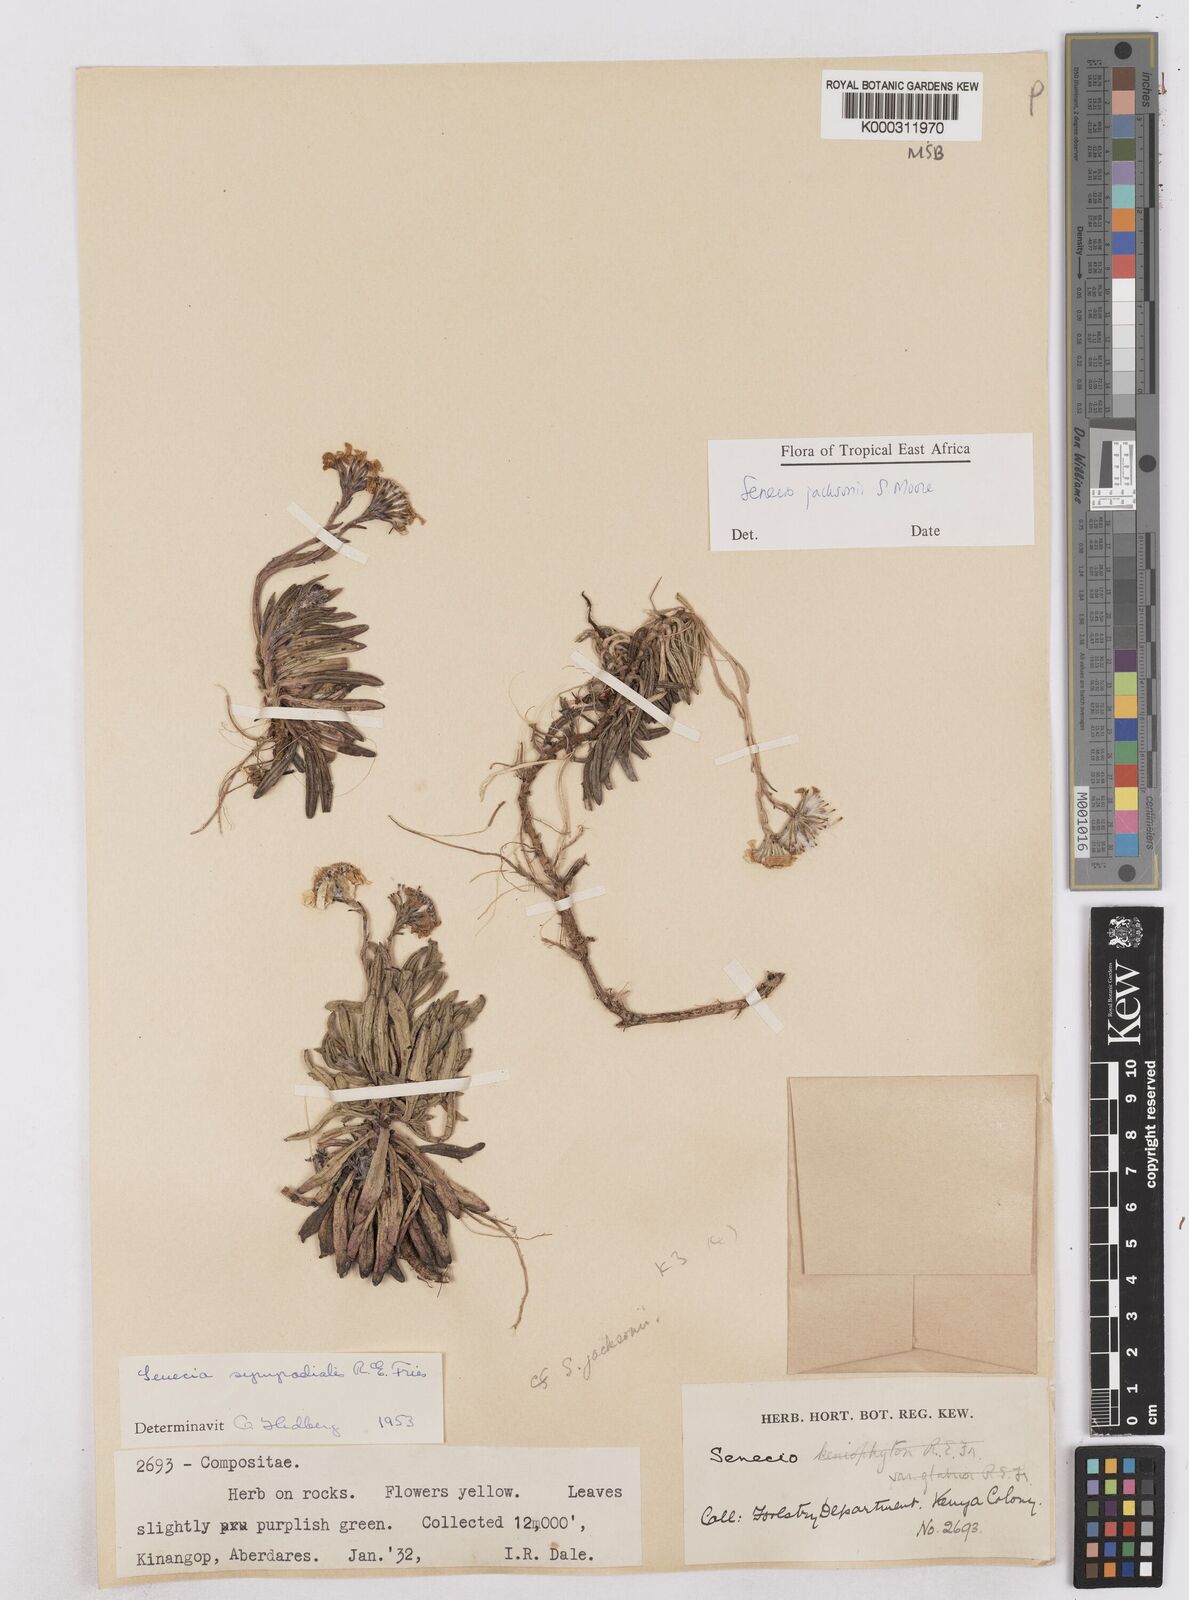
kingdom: Plantae
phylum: Tracheophyta
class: Magnoliopsida
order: Asterales
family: Asteraceae
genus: Senecio
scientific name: Senecio jacksonii
